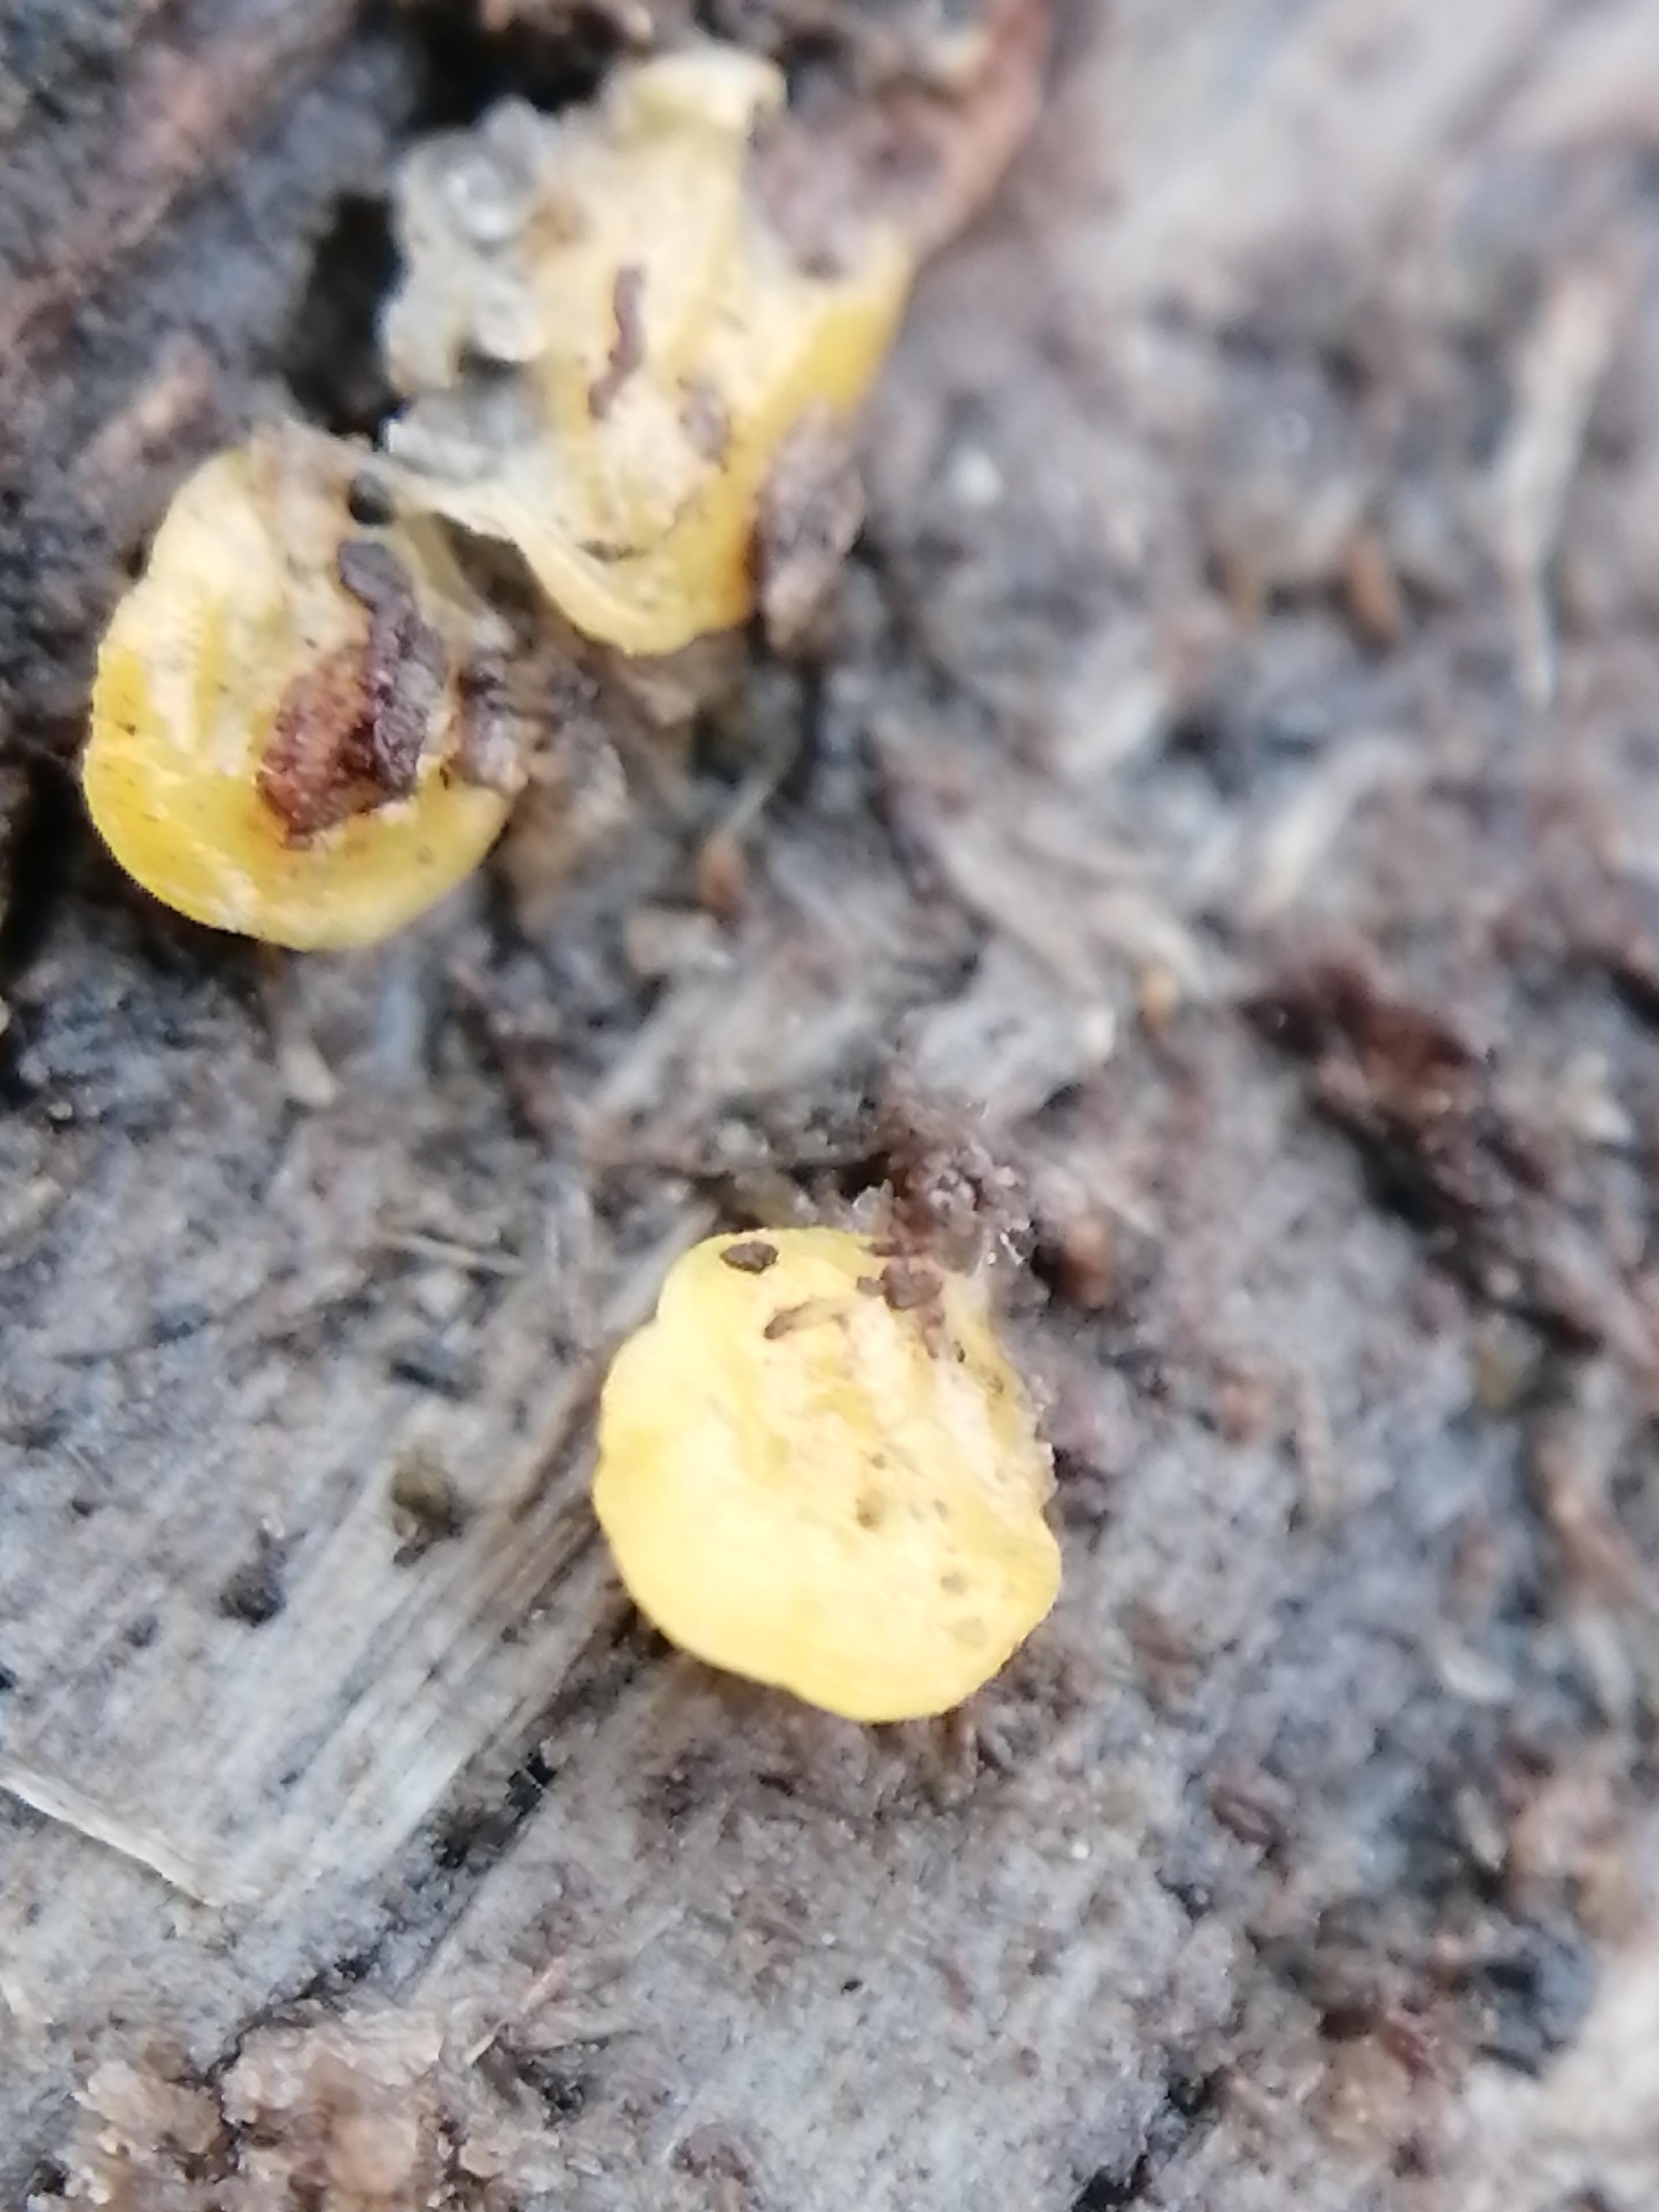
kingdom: Fungi
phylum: Ascomycota
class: Leotiomycetes
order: Helotiales
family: Helotiaceae
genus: Hymenoscyphus
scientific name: Hymenoscyphus
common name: stilkskive
